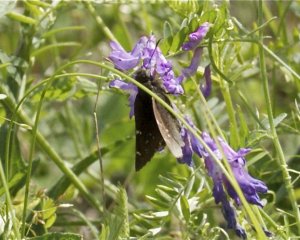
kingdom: Animalia
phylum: Arthropoda
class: Insecta
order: Lepidoptera
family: Hesperiidae
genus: Autochton
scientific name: Autochton
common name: Northern Cloudywing
